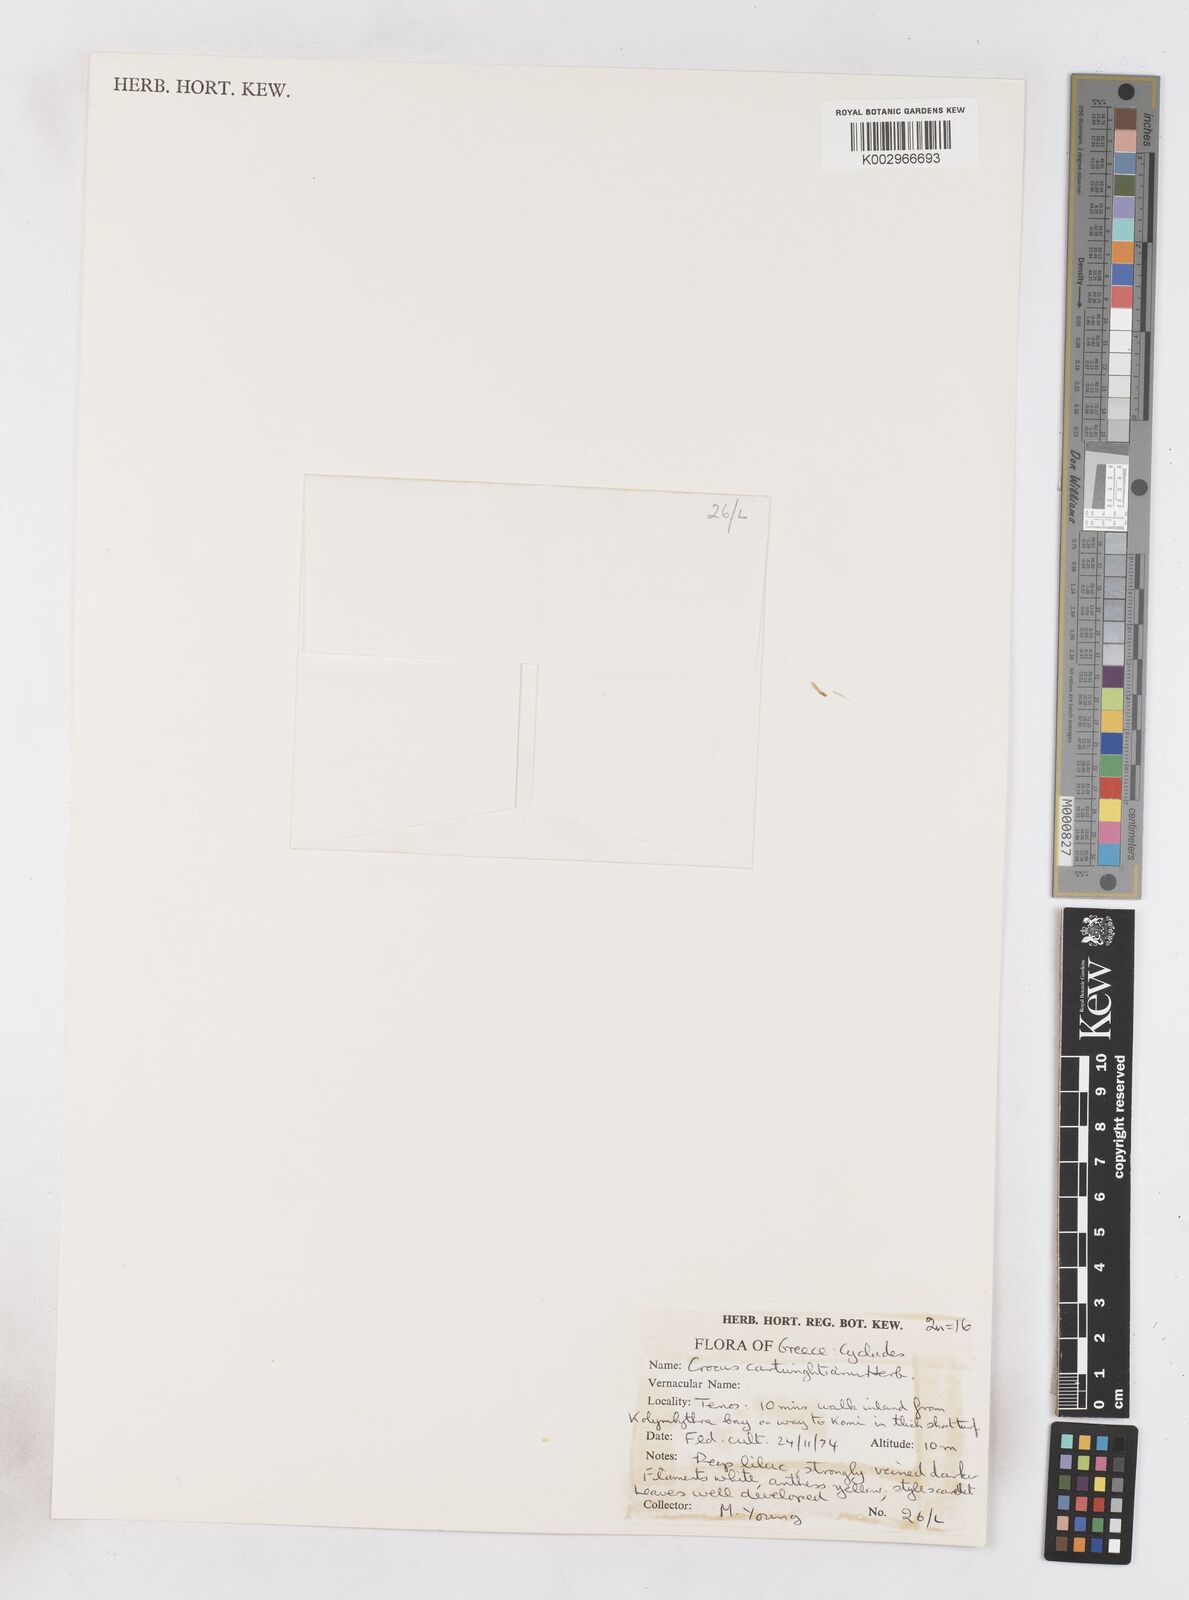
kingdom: Plantae
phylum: Tracheophyta
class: Liliopsida
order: Asparagales
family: Iridaceae
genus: Crocus
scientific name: Crocus cartwrightianus
